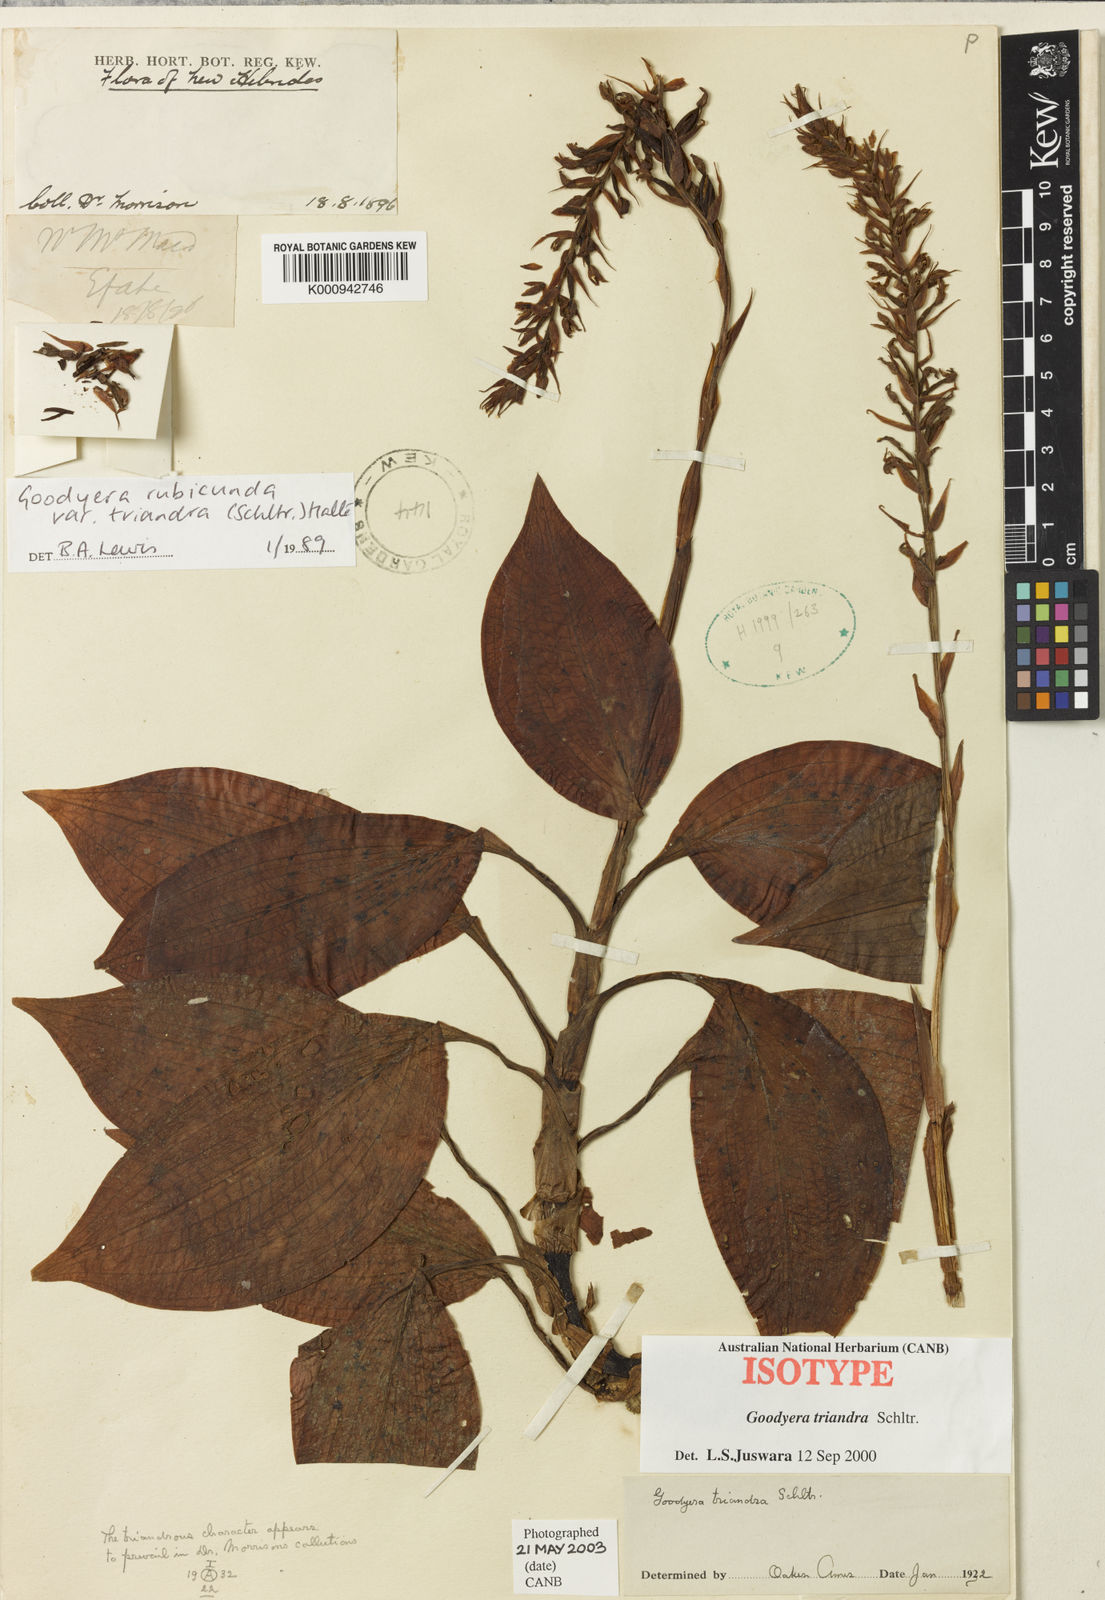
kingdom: Plantae
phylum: Tracheophyta
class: Liliopsida
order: Asparagales
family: Orchidaceae
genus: Goodyera
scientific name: Goodyera rubicunda
